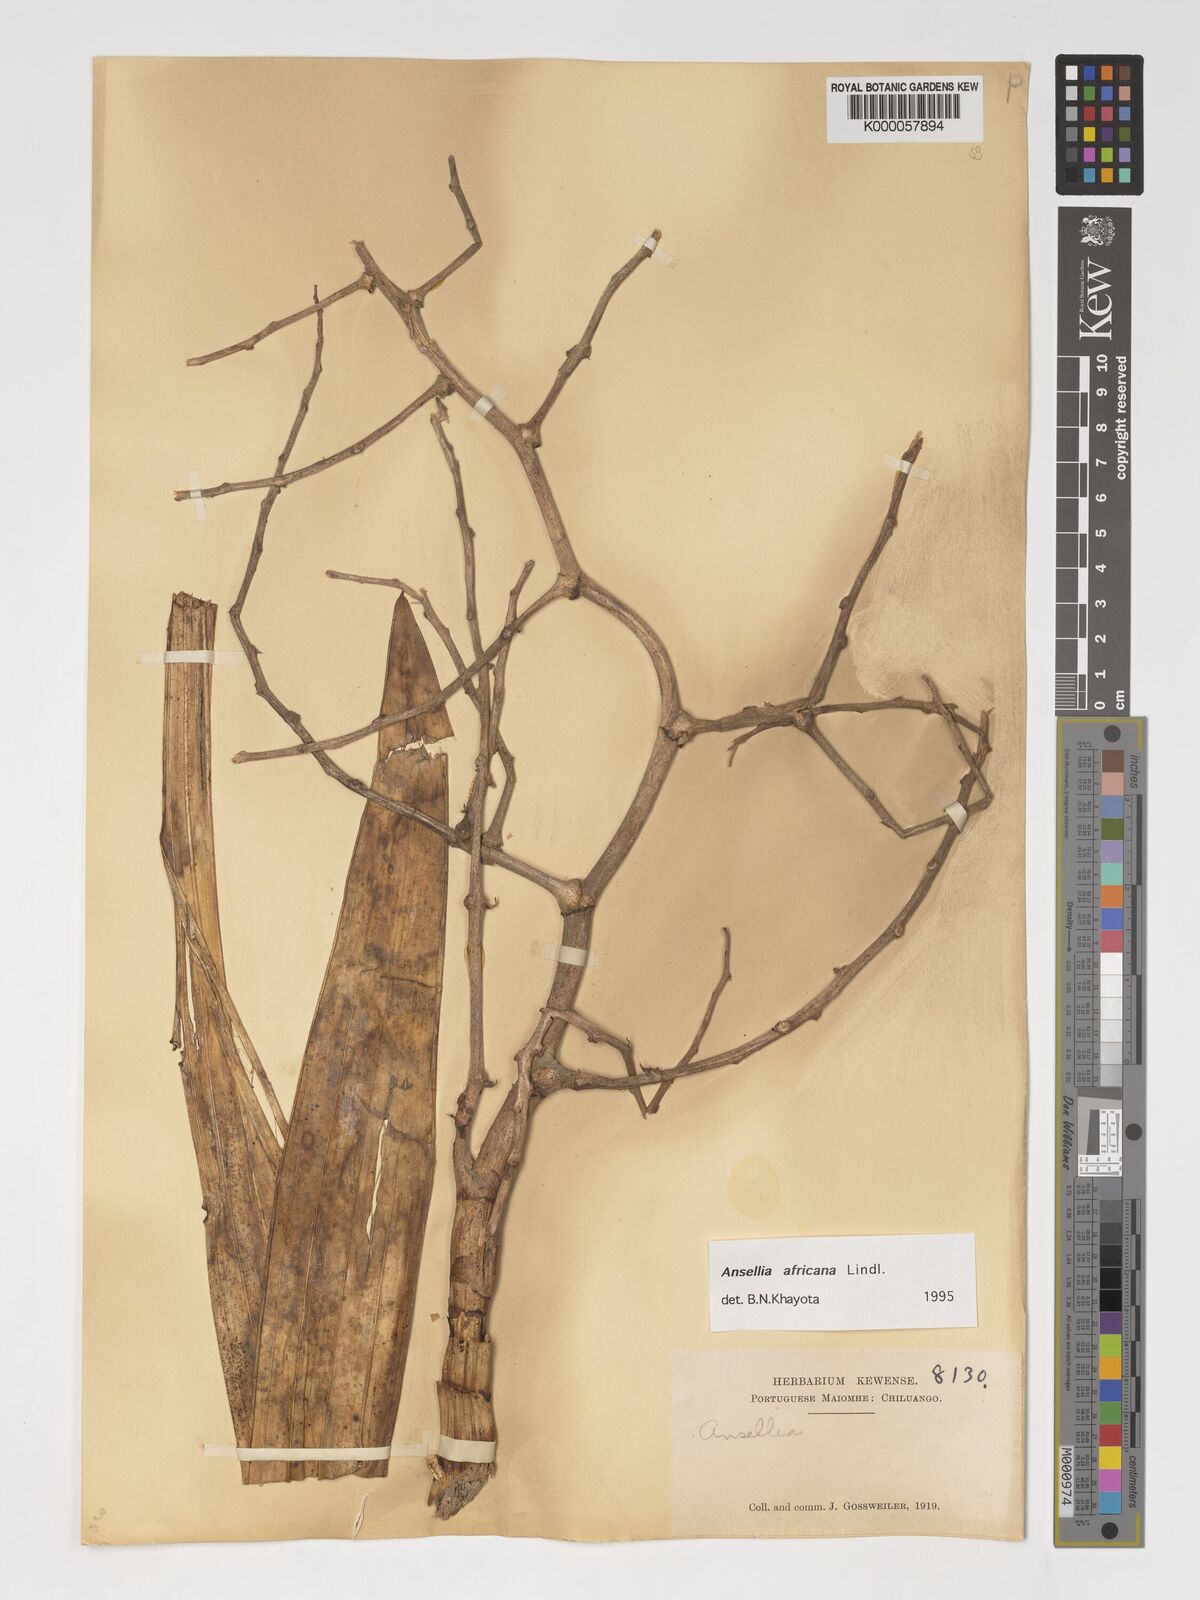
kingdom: Plantae
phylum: Tracheophyta
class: Liliopsida
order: Asparagales
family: Orchidaceae
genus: Ansellia
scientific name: Ansellia africana
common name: African ansellia
